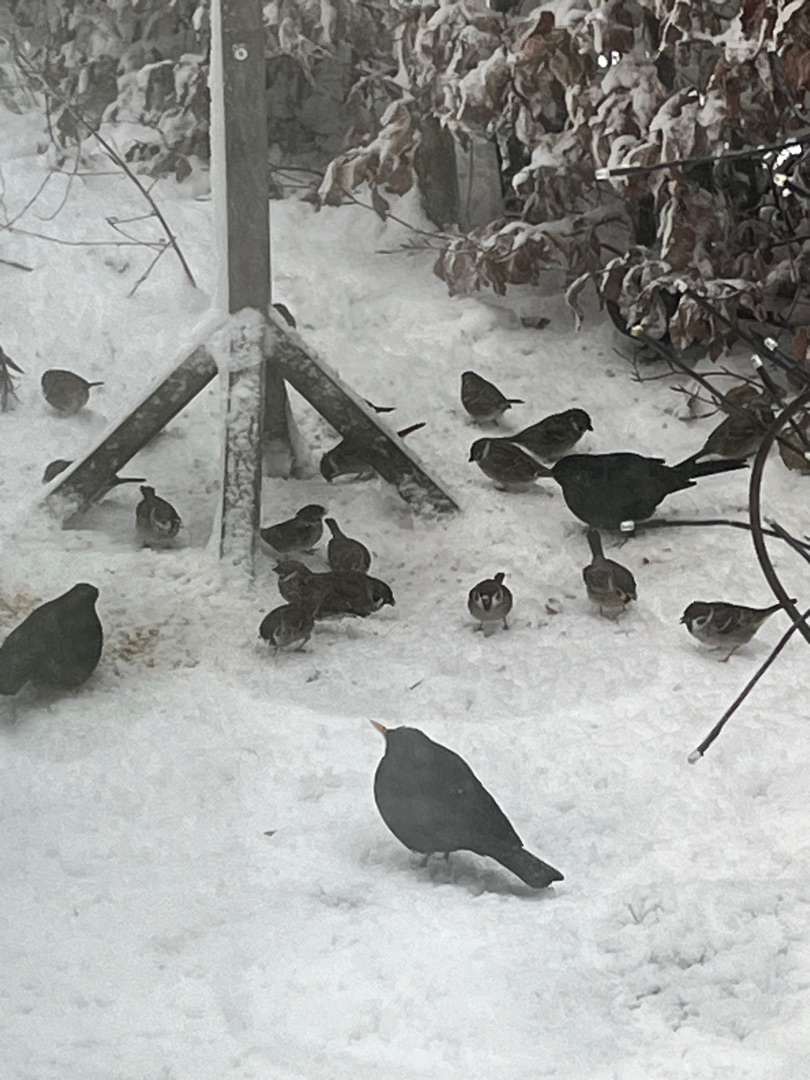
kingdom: Animalia
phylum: Chordata
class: Aves
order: Passeriformes
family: Passeridae
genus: Passer
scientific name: Passer montanus
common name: Skovspurv
